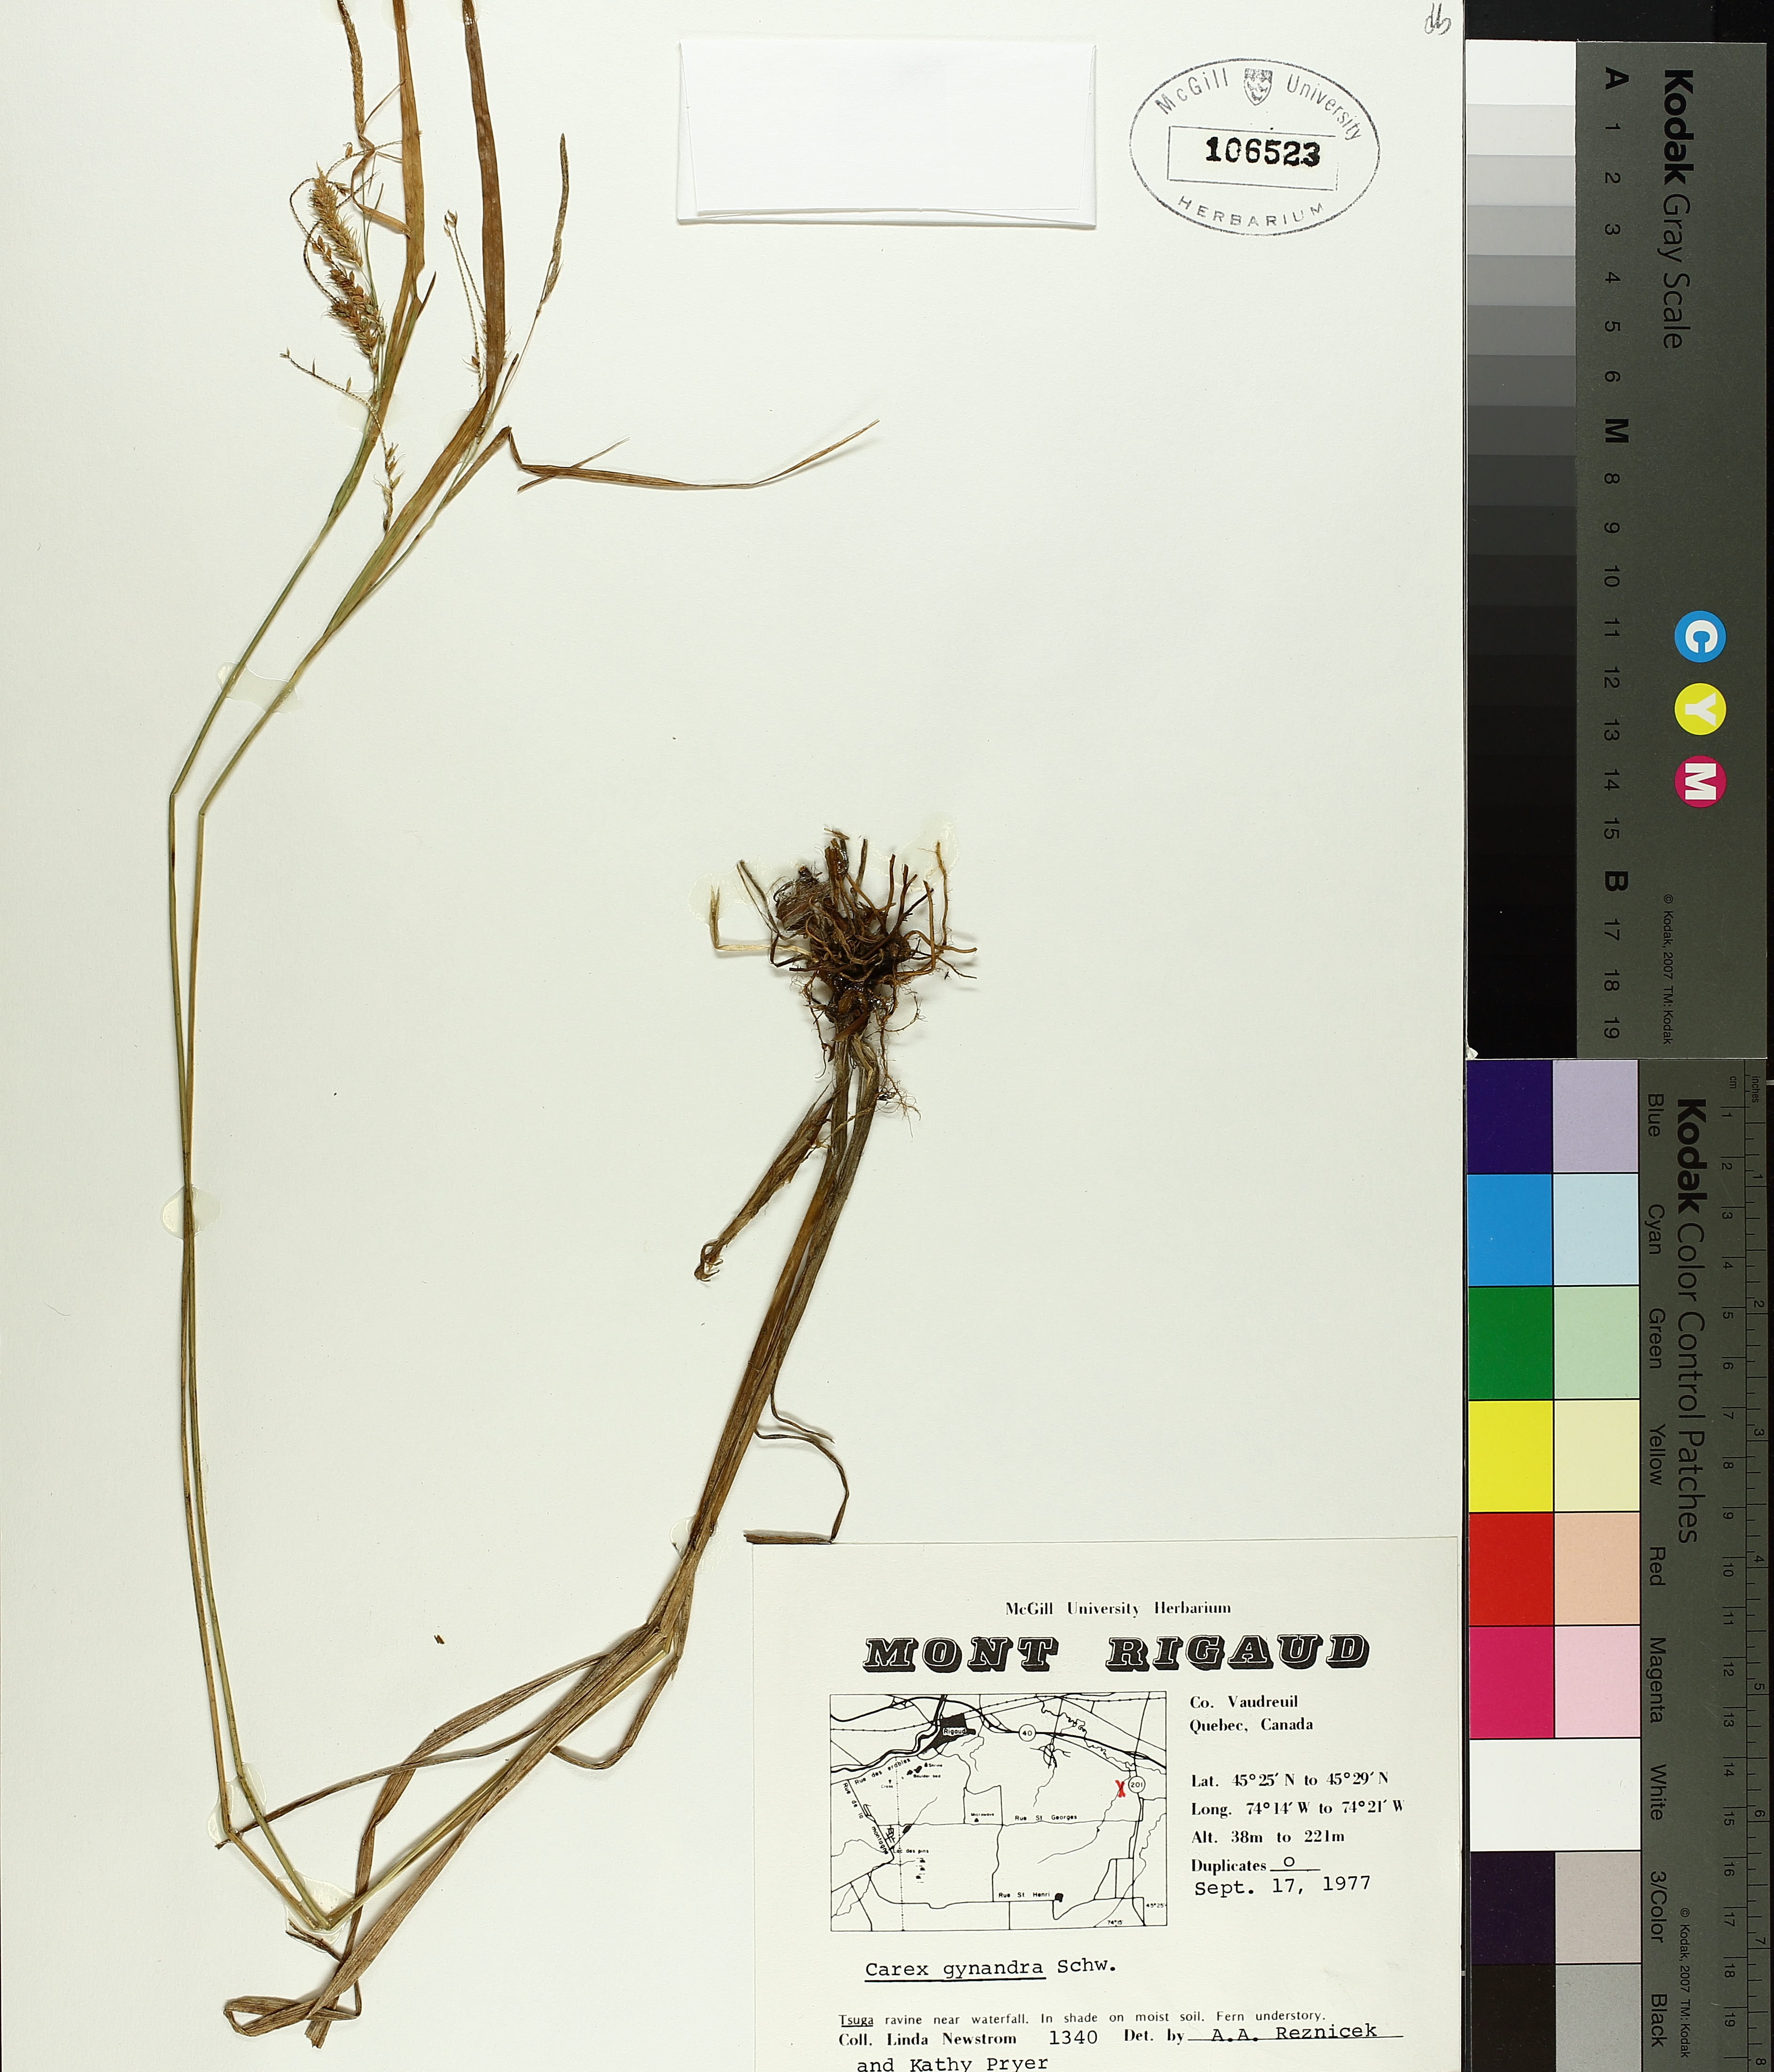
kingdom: Plantae
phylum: Tracheophyta
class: Liliopsida
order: Poales
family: Cyperaceae
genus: Carex
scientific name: Carex gynandra
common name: Nodding sedge
